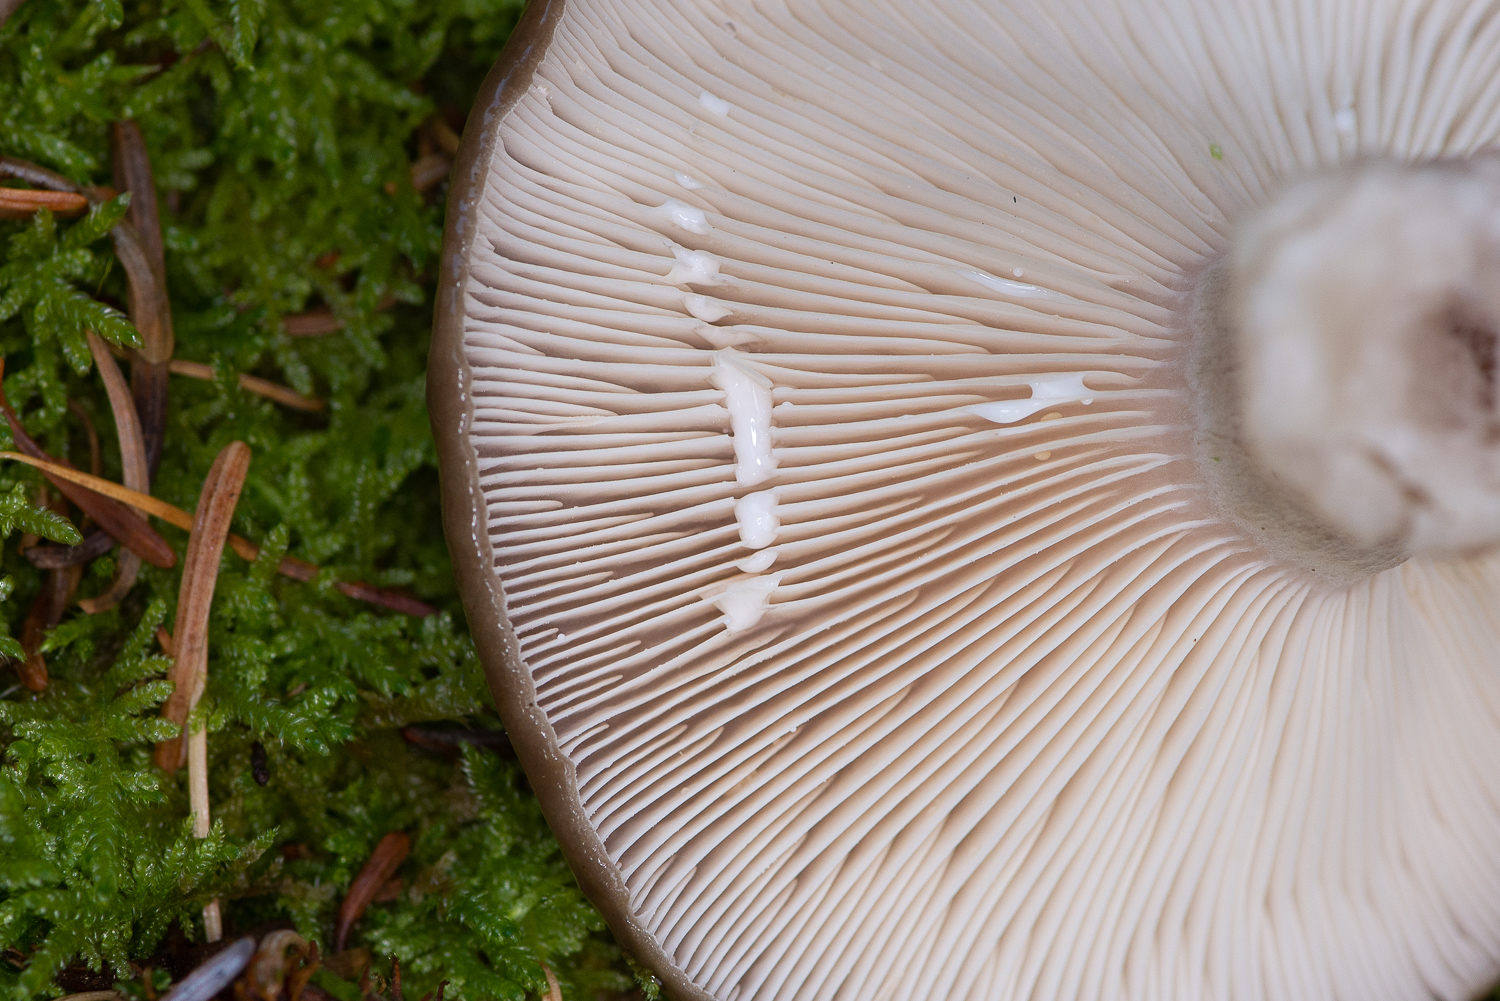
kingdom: Fungi
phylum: Basidiomycota
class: Agaricomycetes
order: Russulales
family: Russulaceae
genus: Lactarius
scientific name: Lactarius blennius
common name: dråbeplettet mælkehat
